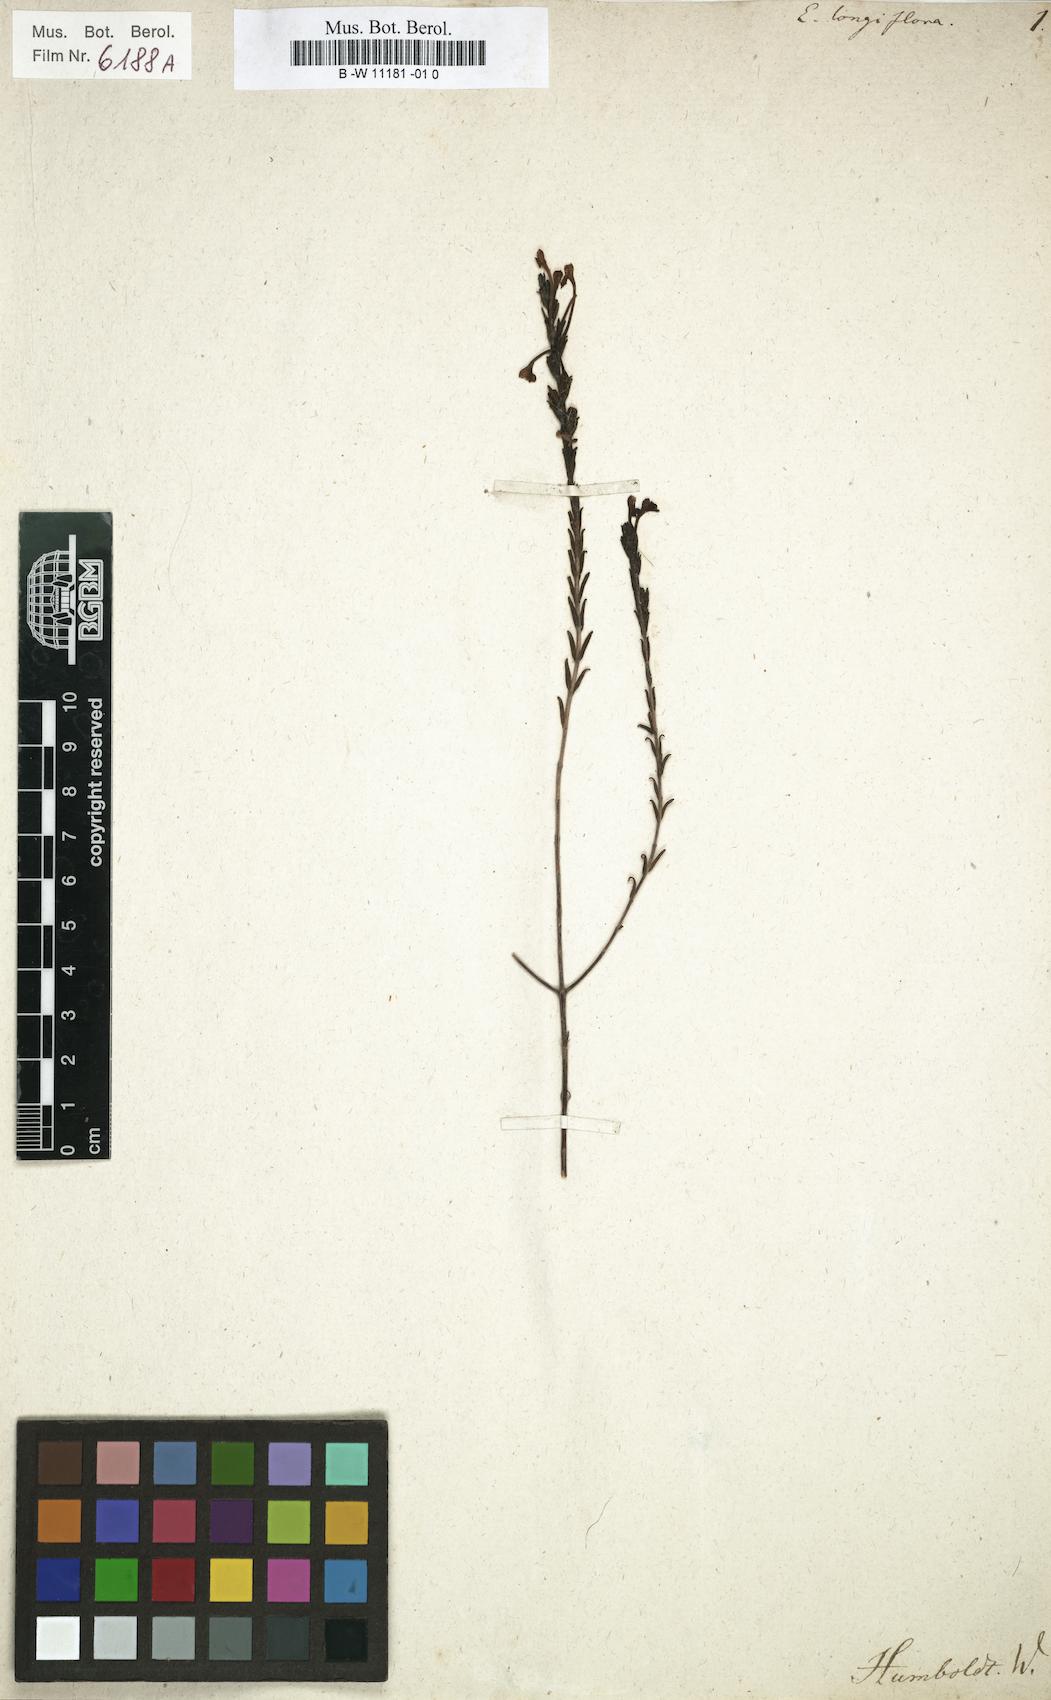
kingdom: Plantae
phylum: Tracheophyta
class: Magnoliopsida
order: Lamiales
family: Orobanchaceae
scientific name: Orobanchaceae
